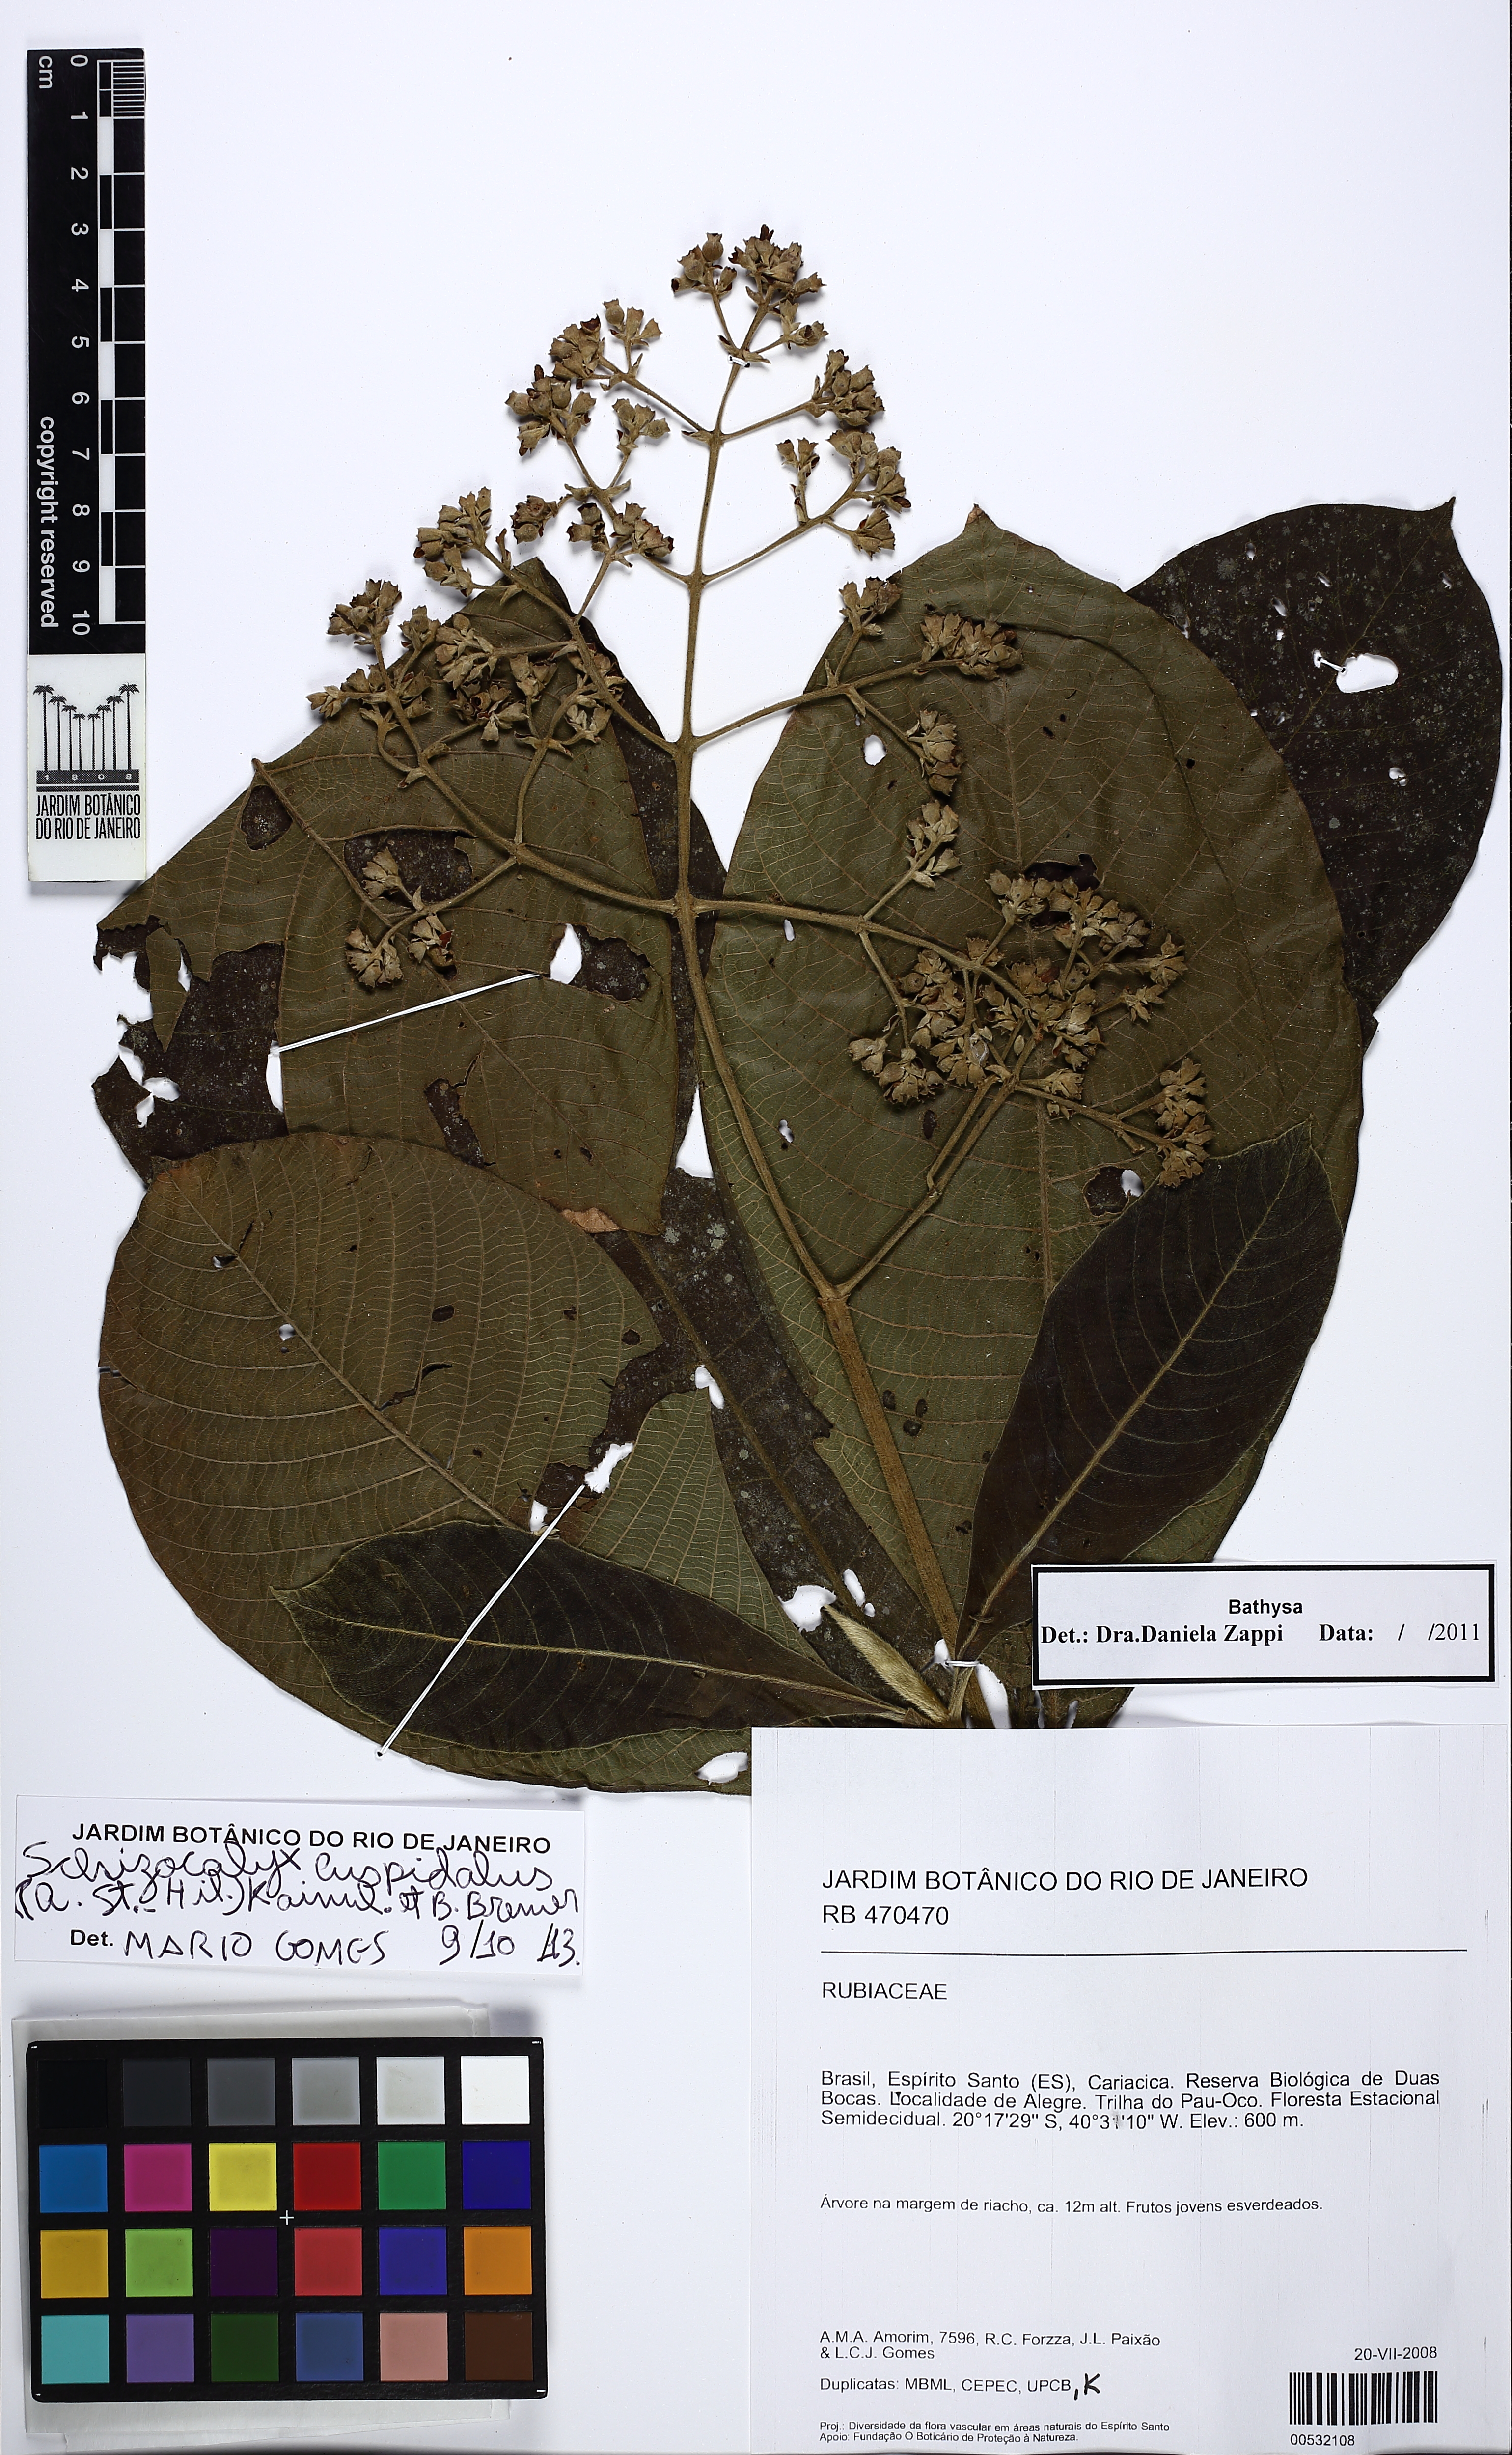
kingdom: Plantae
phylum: Tracheophyta
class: Magnoliopsida
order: Gentianales
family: Rubiaceae
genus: Bathysa
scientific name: Bathysa
